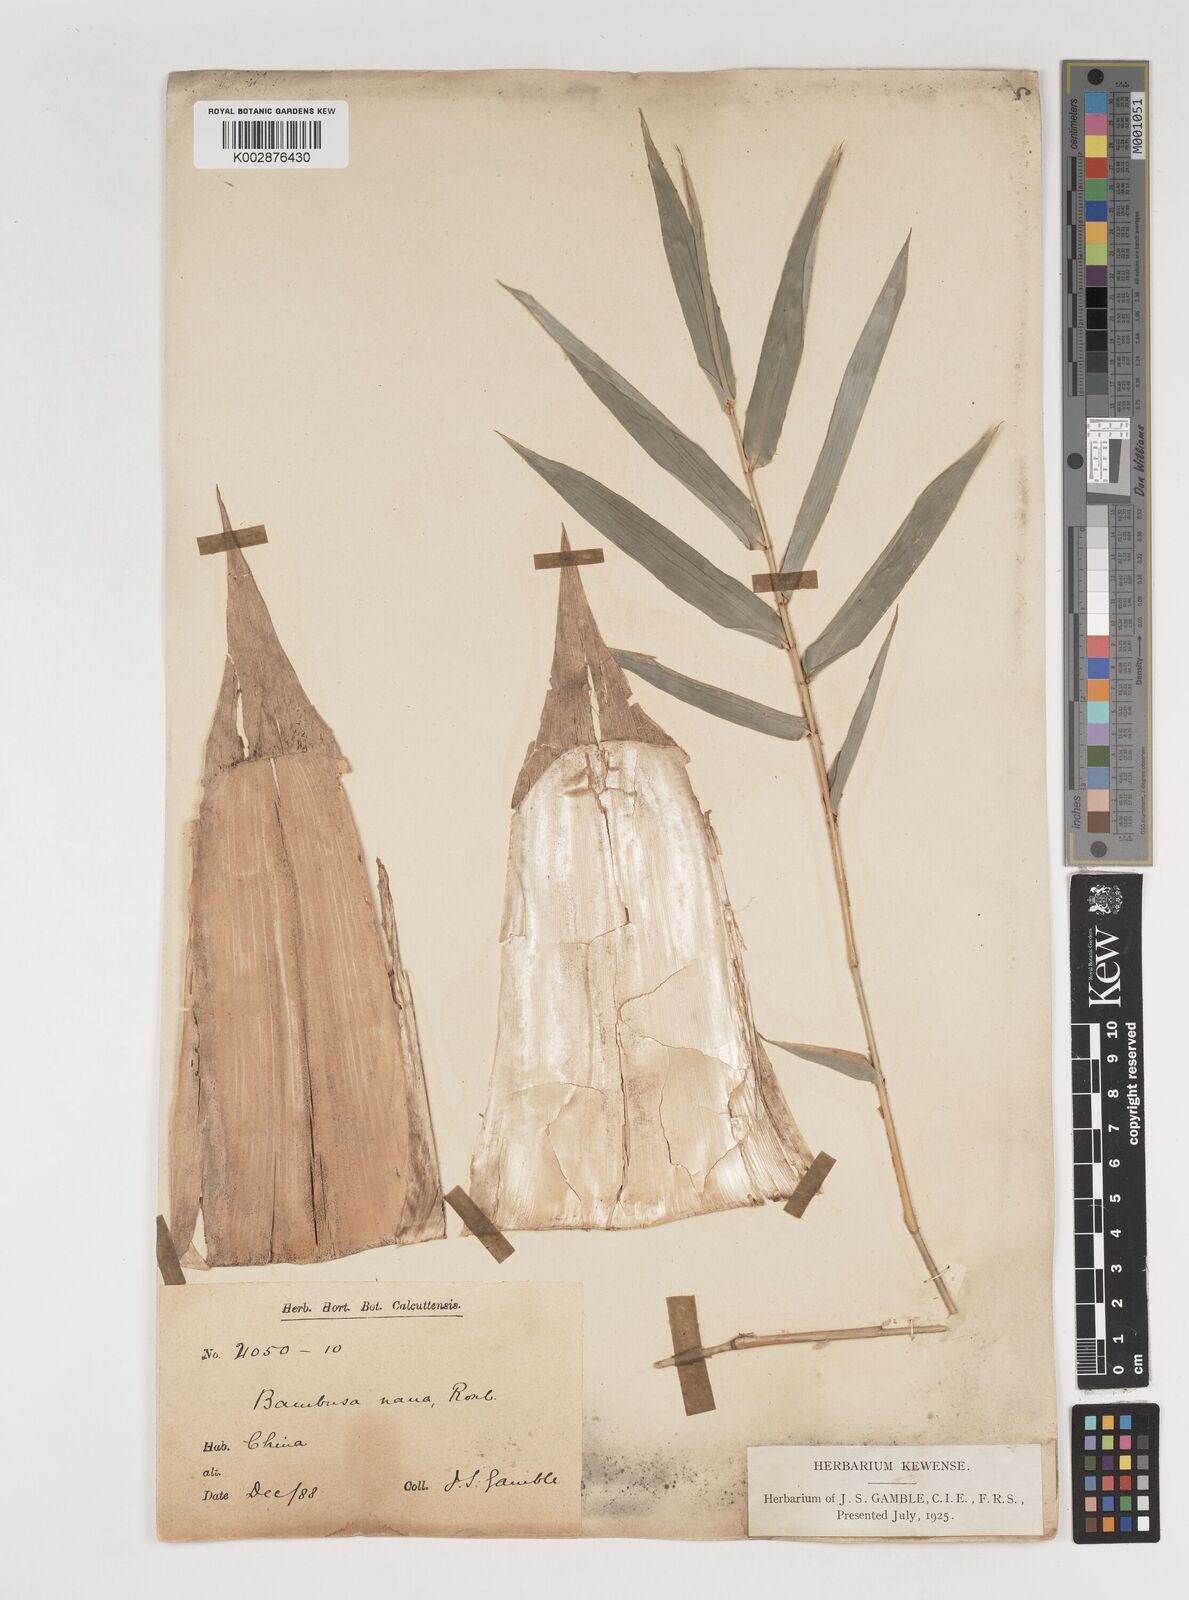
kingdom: Plantae
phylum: Tracheophyta
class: Liliopsida
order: Poales
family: Poaceae
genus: Bambusa
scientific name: Bambusa multiplex
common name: Hedge bamboo
